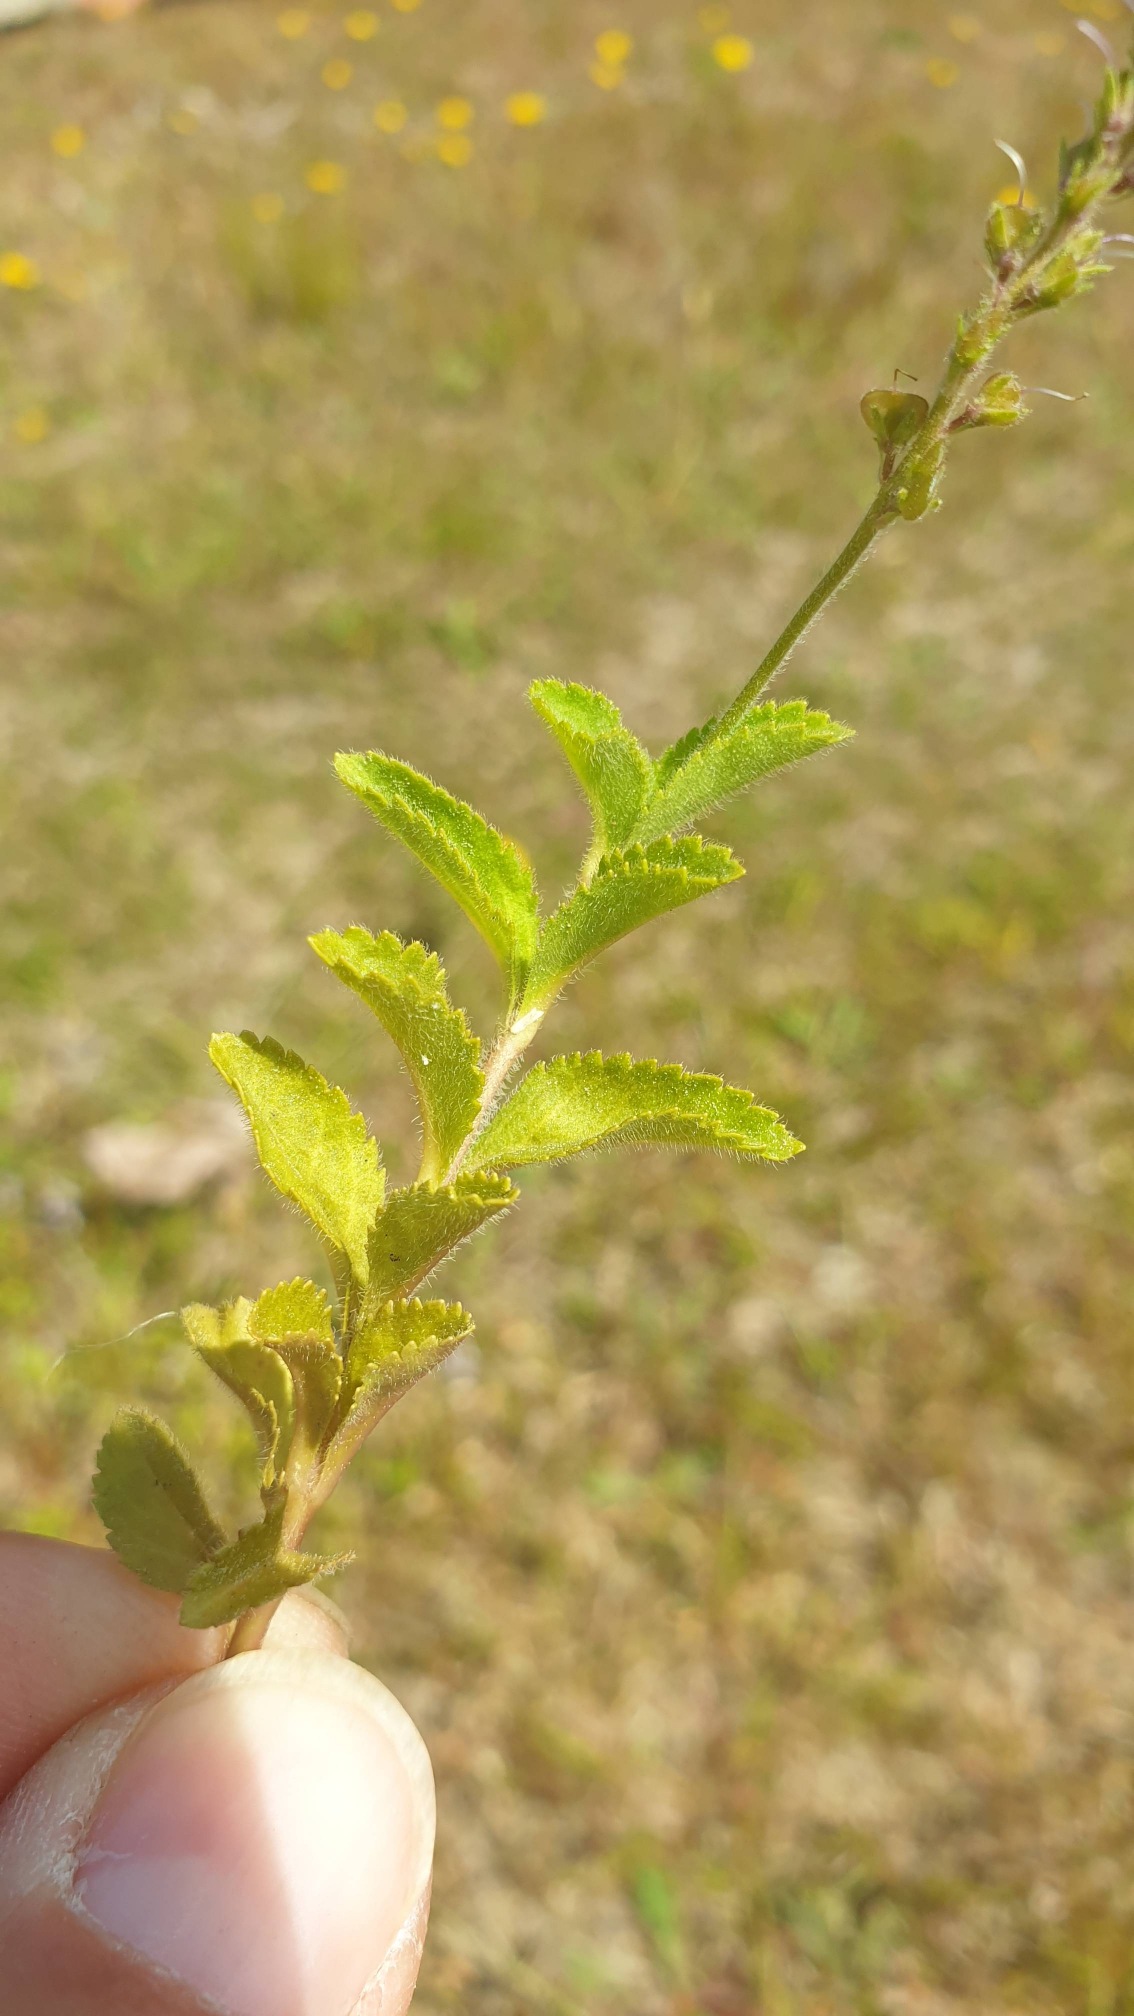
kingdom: Plantae
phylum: Tracheophyta
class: Magnoliopsida
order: Lamiales
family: Plantaginaceae
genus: Veronica
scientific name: Veronica officinalis
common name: Læge-ærenpris
